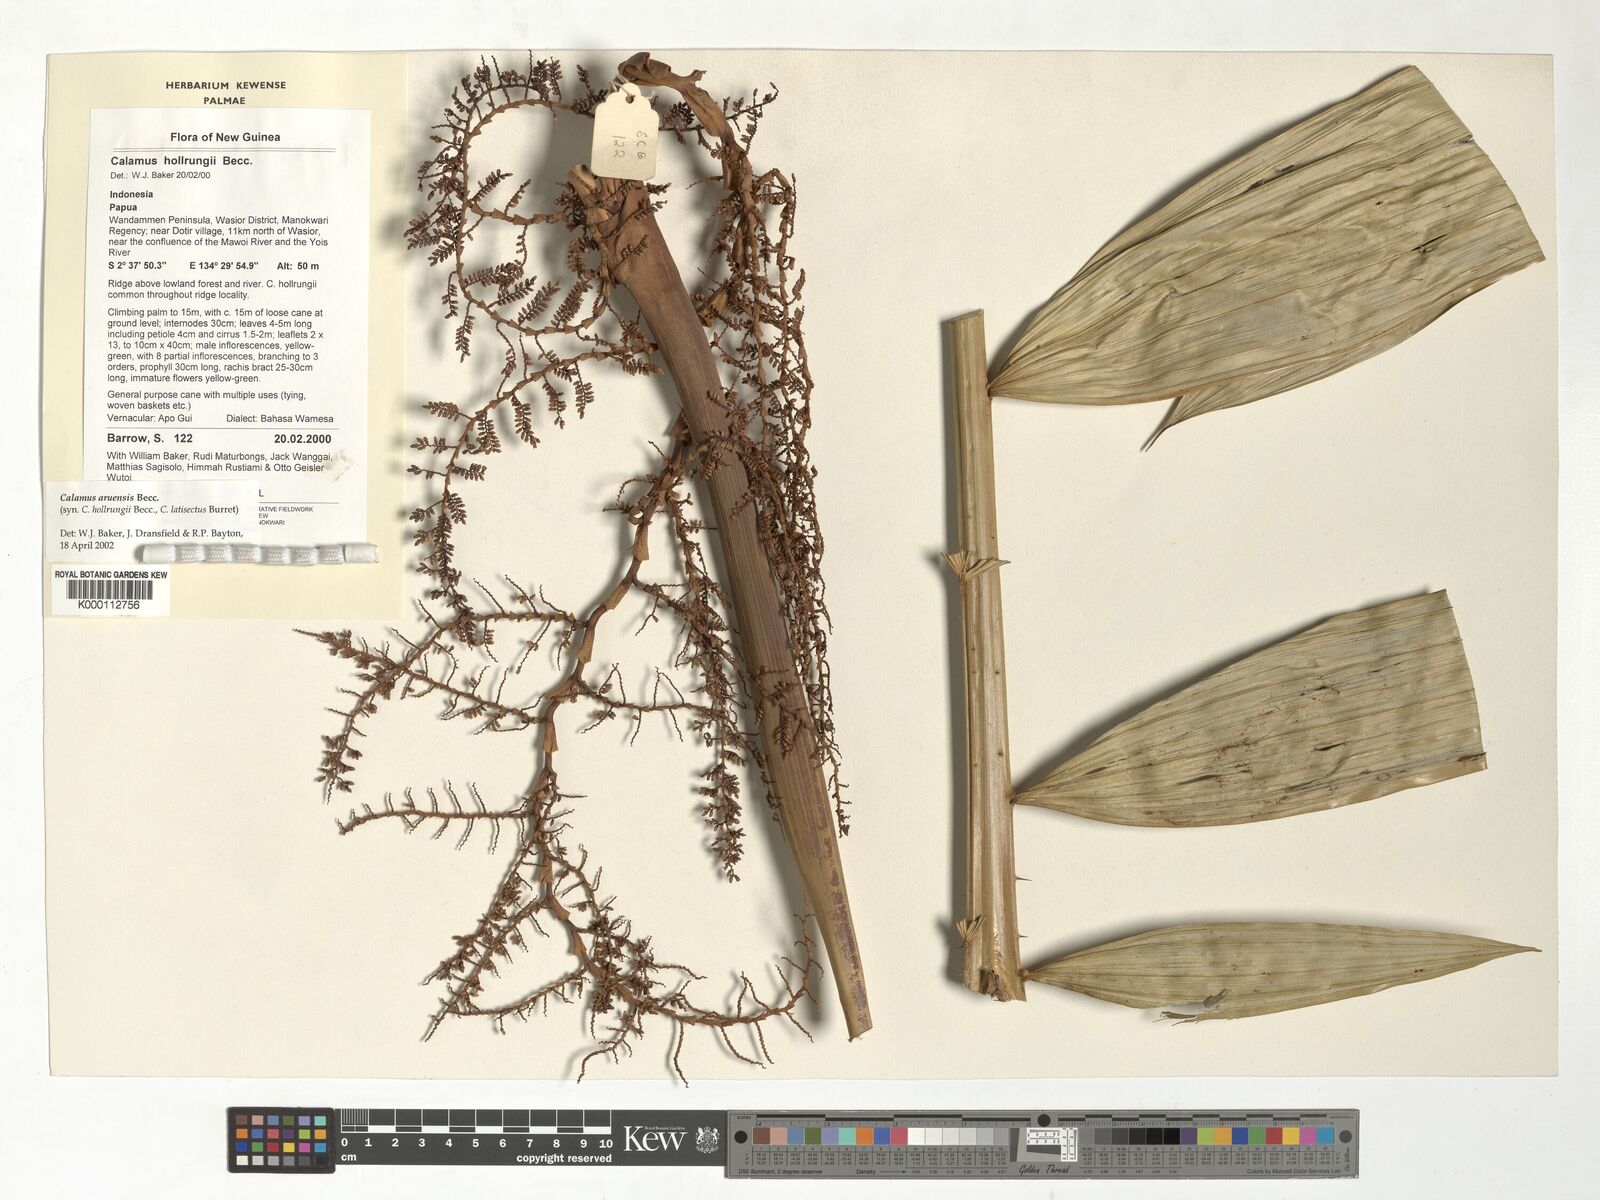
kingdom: Plantae
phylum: Tracheophyta
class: Liliopsida
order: Arecales
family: Arecaceae
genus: Calamus
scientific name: Calamus aruensis
